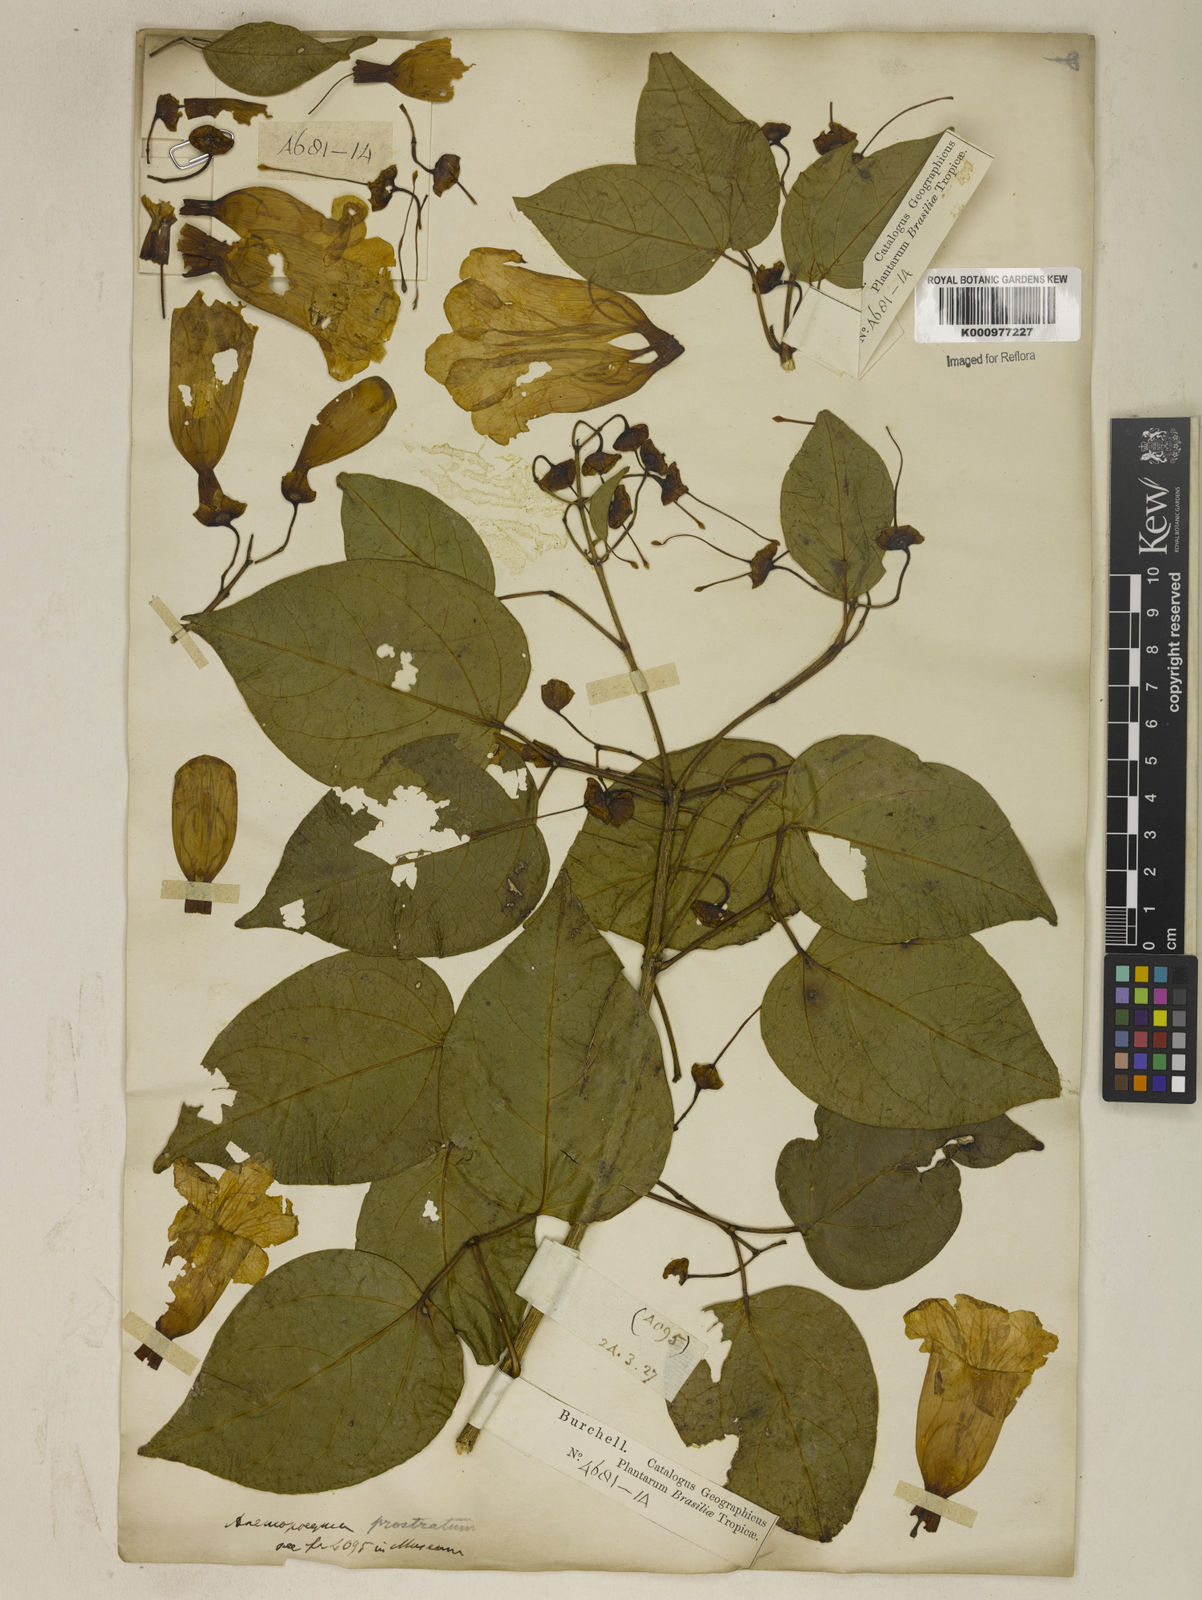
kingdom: Plantae
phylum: Tracheophyta
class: Magnoliopsida
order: Lamiales
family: Bignoniaceae
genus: Anemopaegma
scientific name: Anemopaegma
